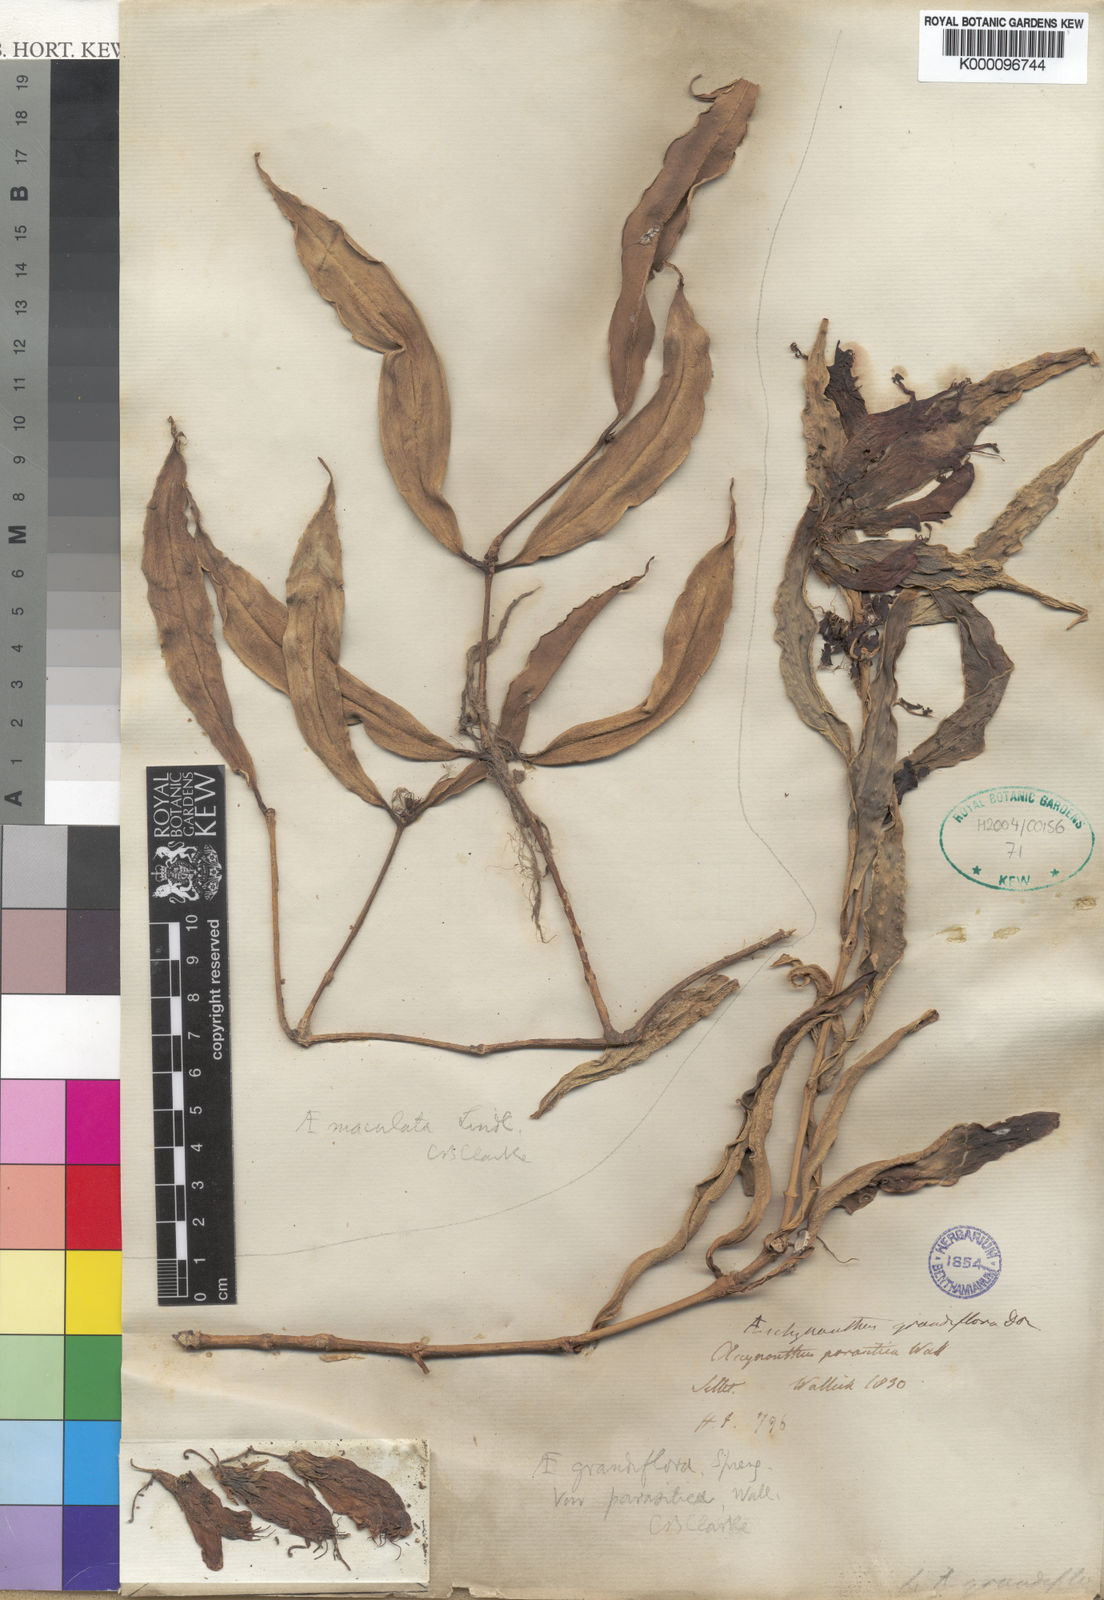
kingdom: Plantae
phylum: Tracheophyta
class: Magnoliopsida
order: Lamiales
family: Gesneriaceae
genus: Aeschynanthus
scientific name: Aeschynanthus parasiticus
